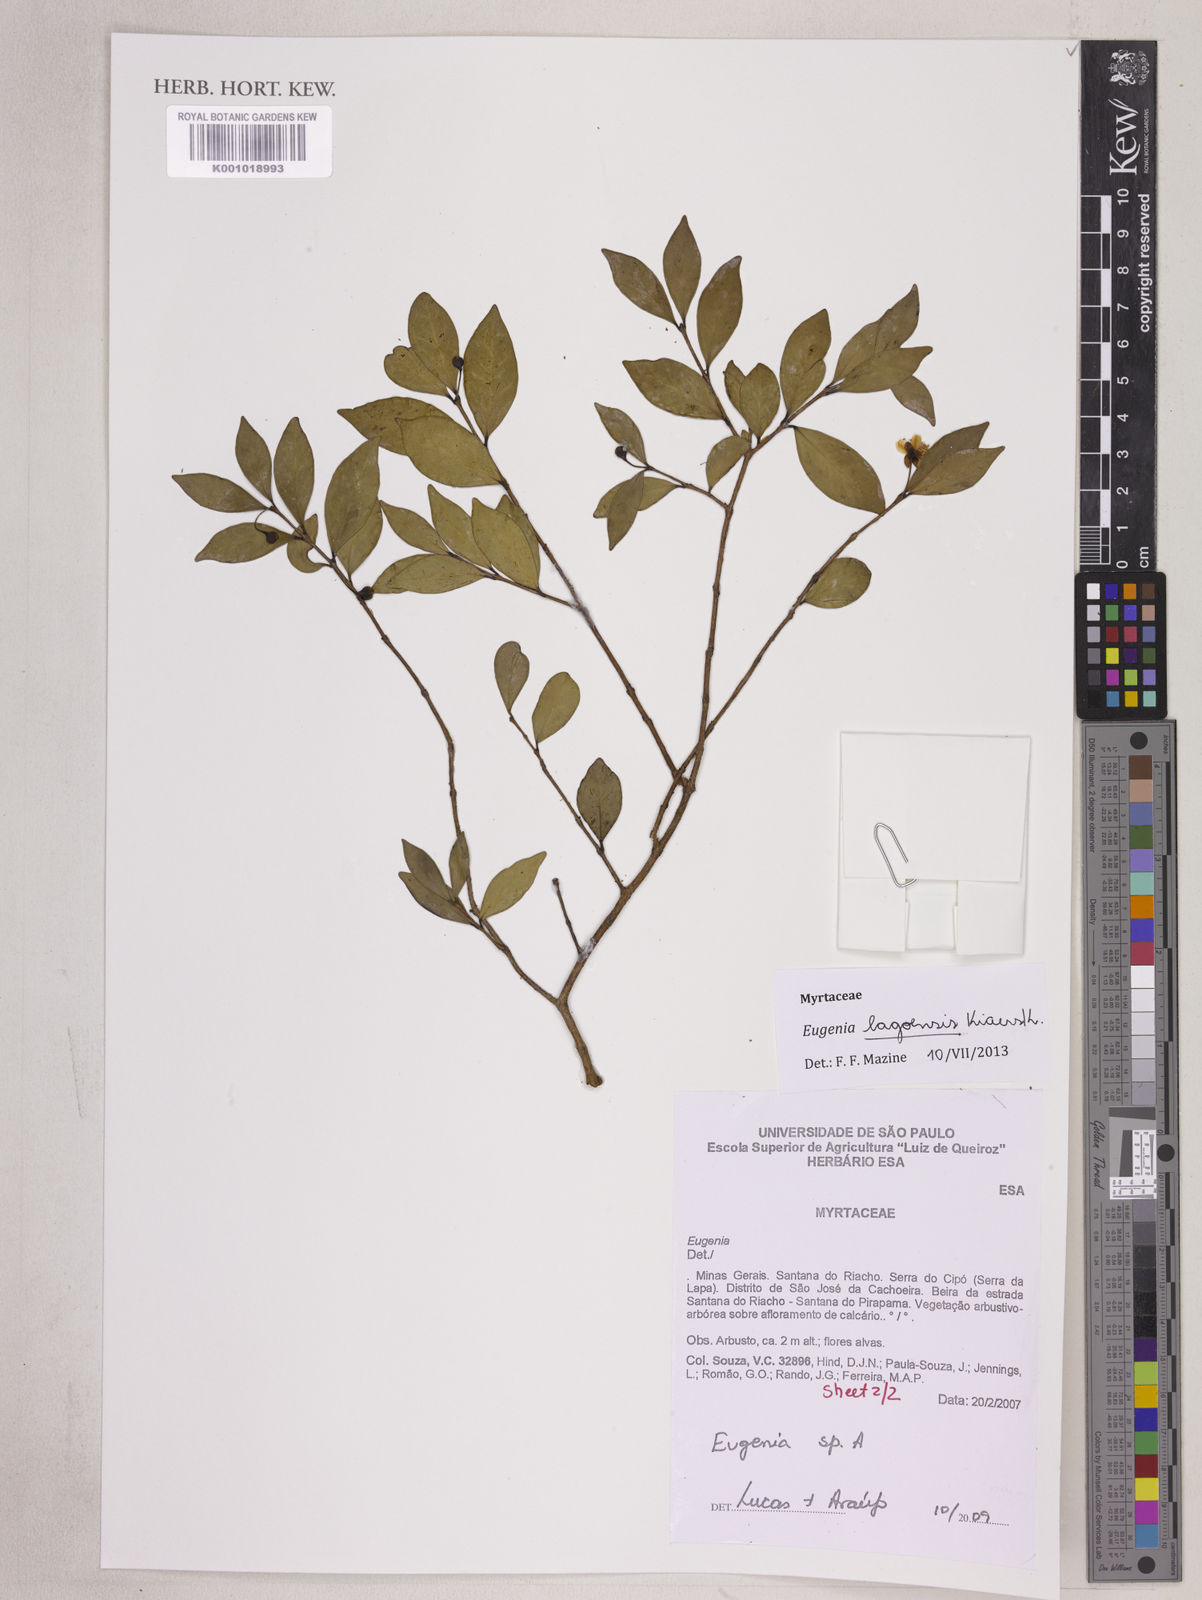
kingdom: Plantae
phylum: Tracheophyta
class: Magnoliopsida
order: Myrtales
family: Myrtaceae
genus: Eugenia
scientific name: Eugenia lagoensis
